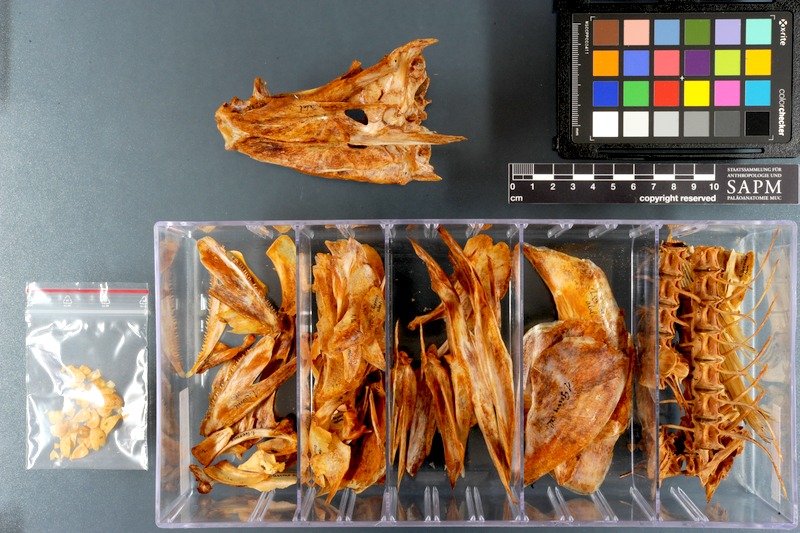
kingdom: Animalia
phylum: Chordata
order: Perciformes
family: Scombridae
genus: Thunnus
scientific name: Thunnus alalunga
